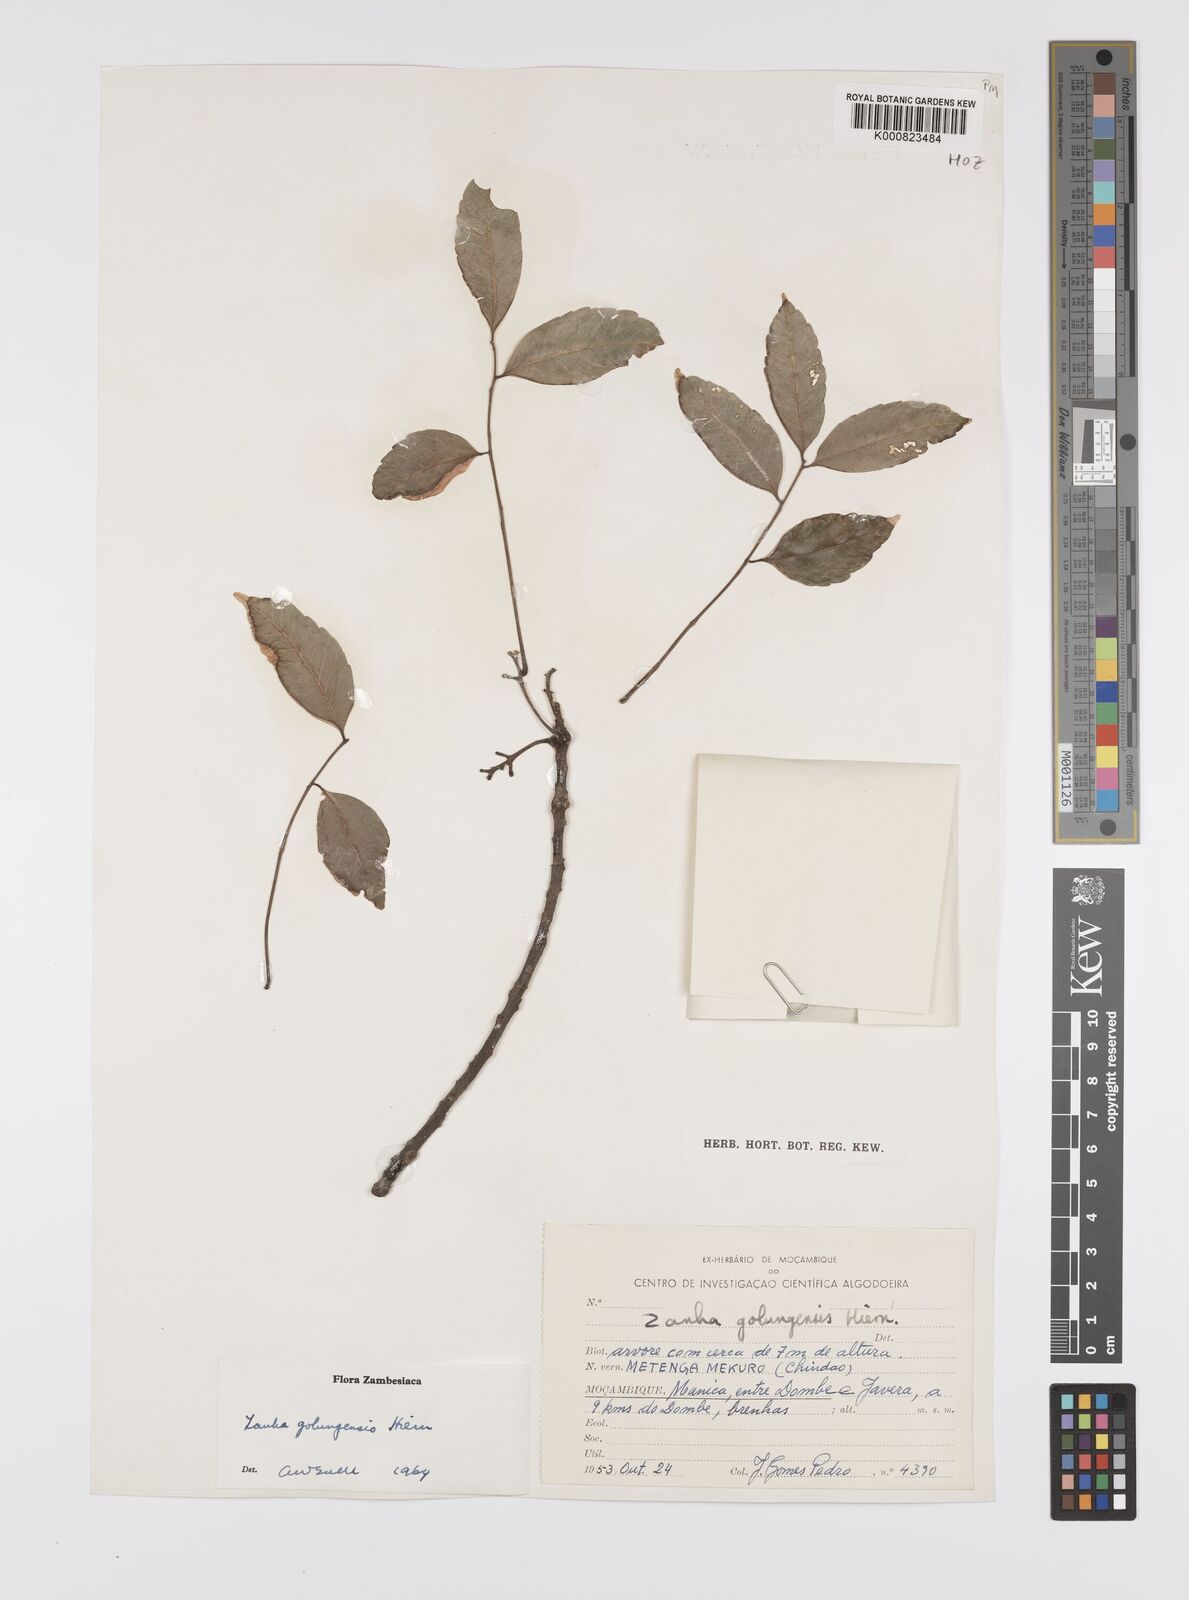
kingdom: Plantae
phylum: Tracheophyta
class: Magnoliopsida
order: Sapindales
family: Sapindaceae
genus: Zanha
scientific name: Zanha golungensis
